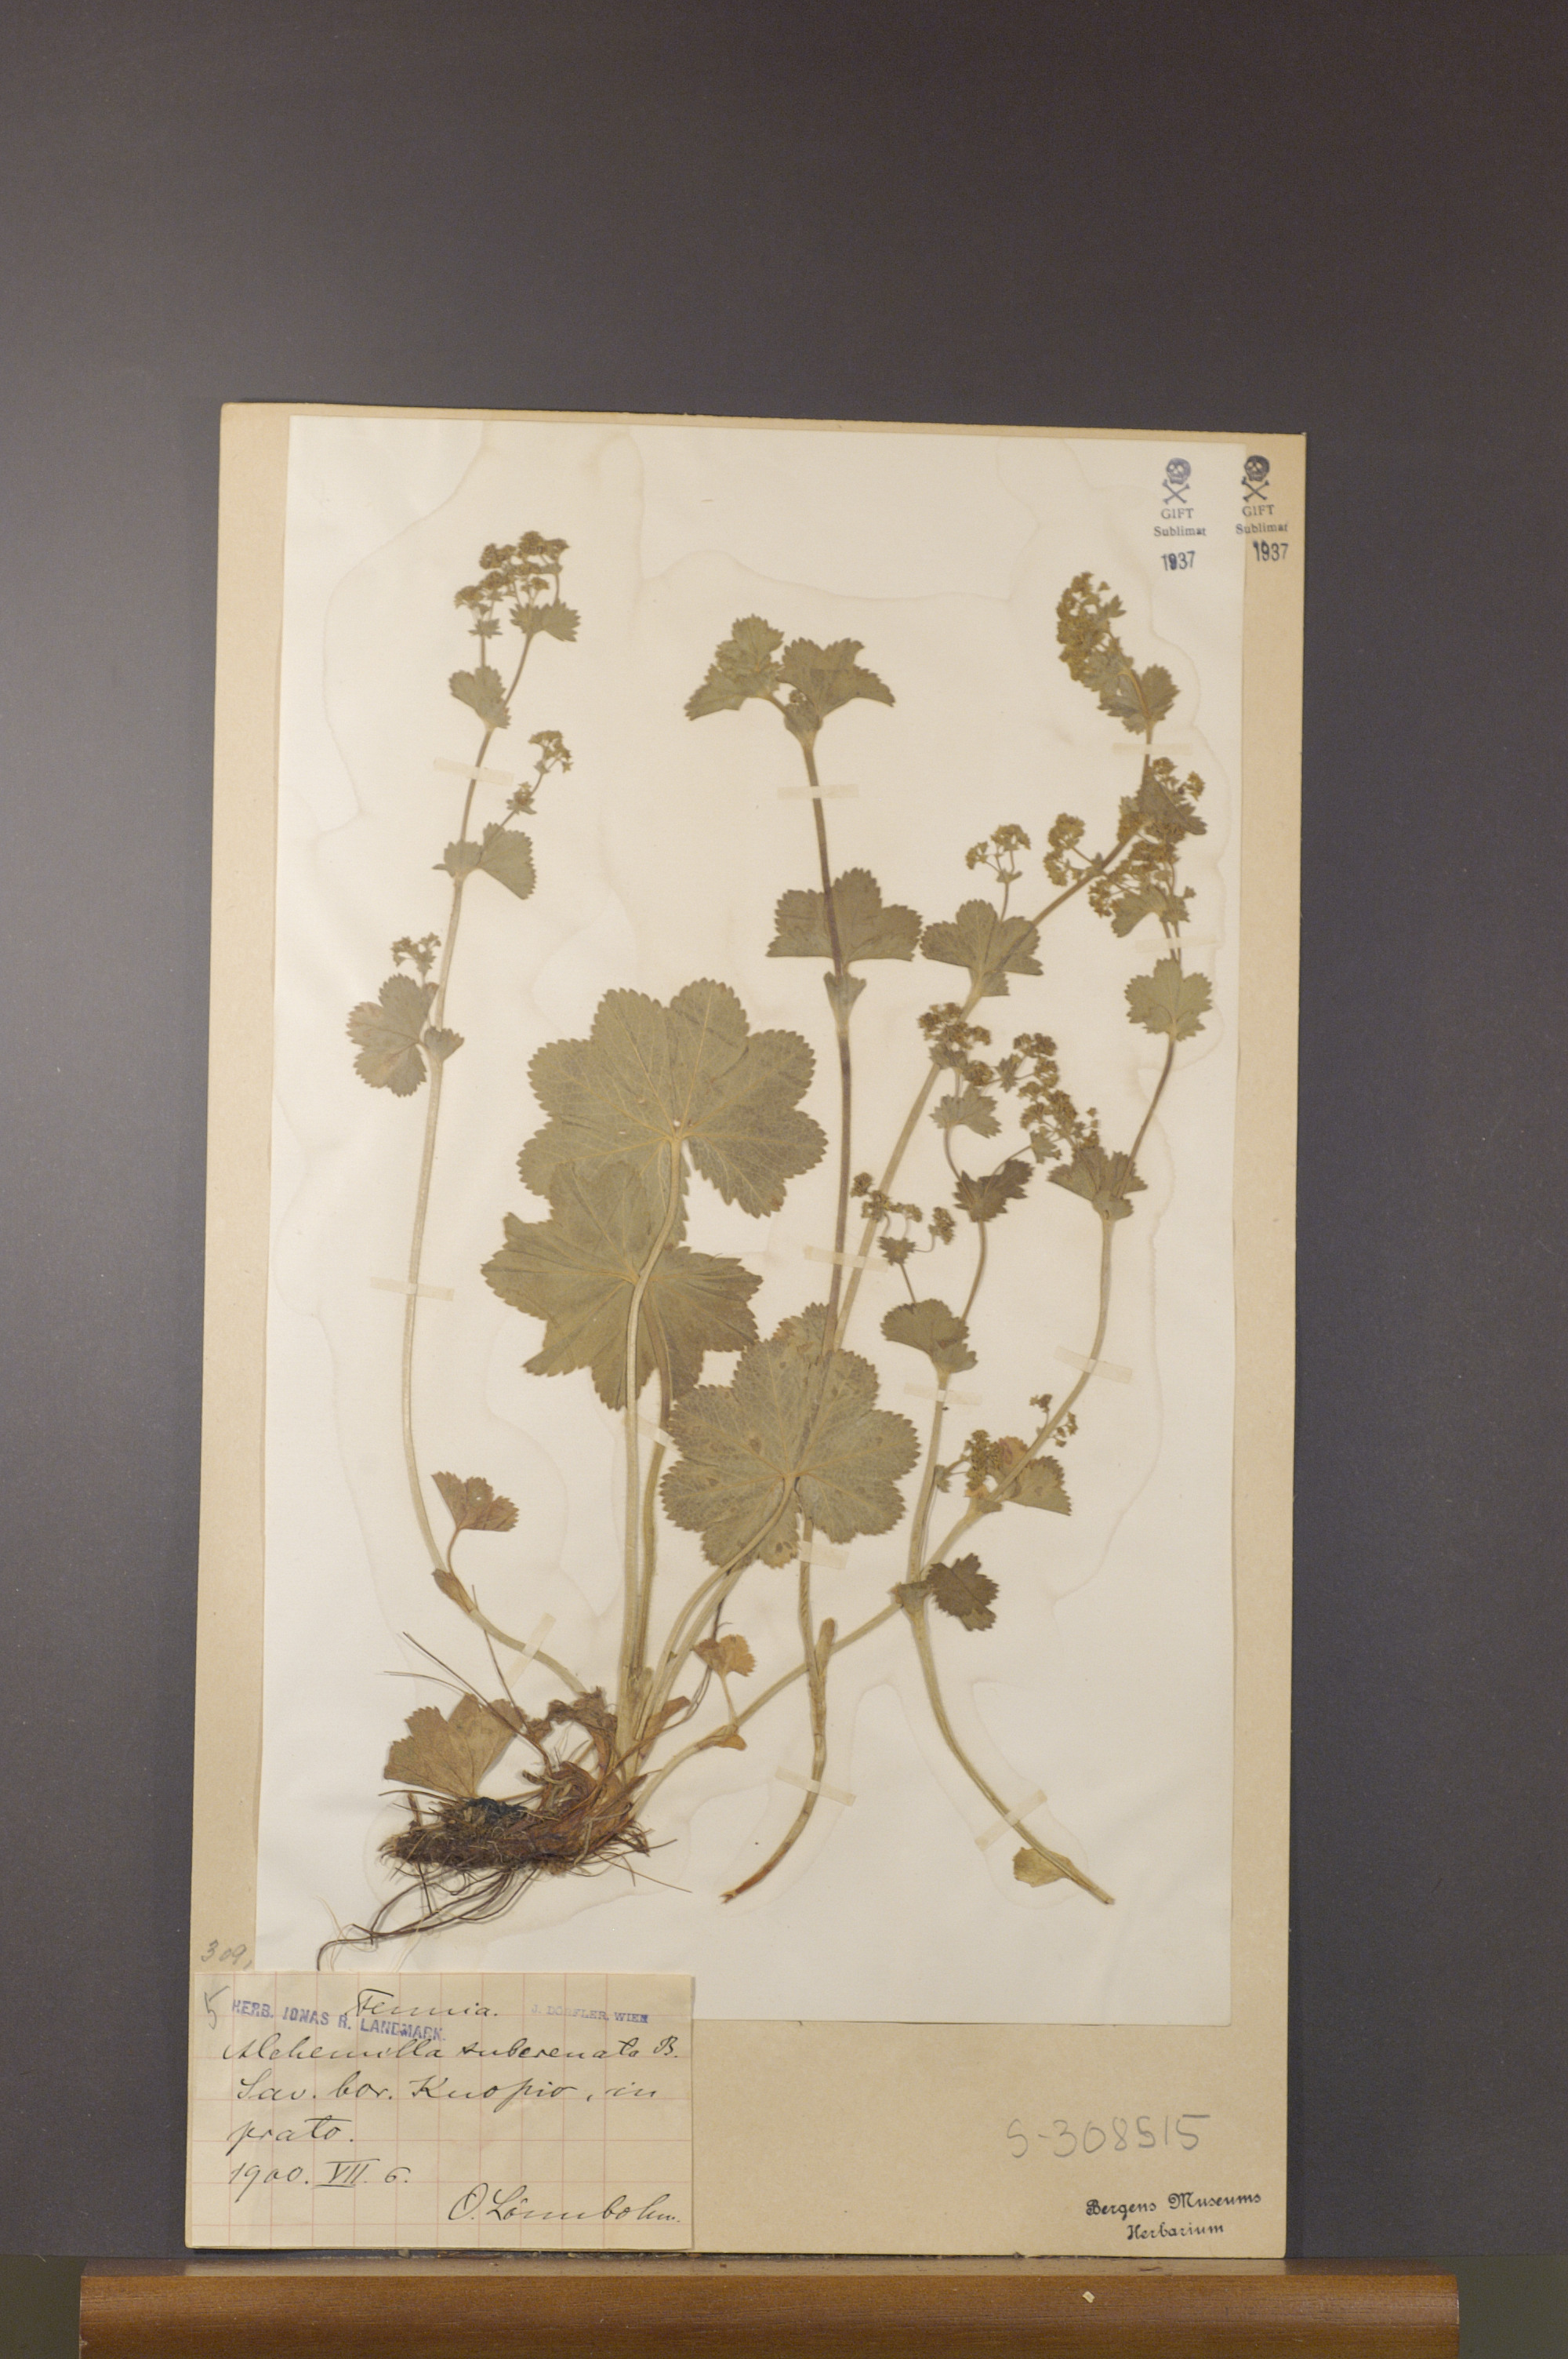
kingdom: Plantae
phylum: Tracheophyta
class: Magnoliopsida
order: Rosales
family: Rosaceae
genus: Alchemilla
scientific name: Alchemilla subcrenata
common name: Broadtooth lady's mantle
